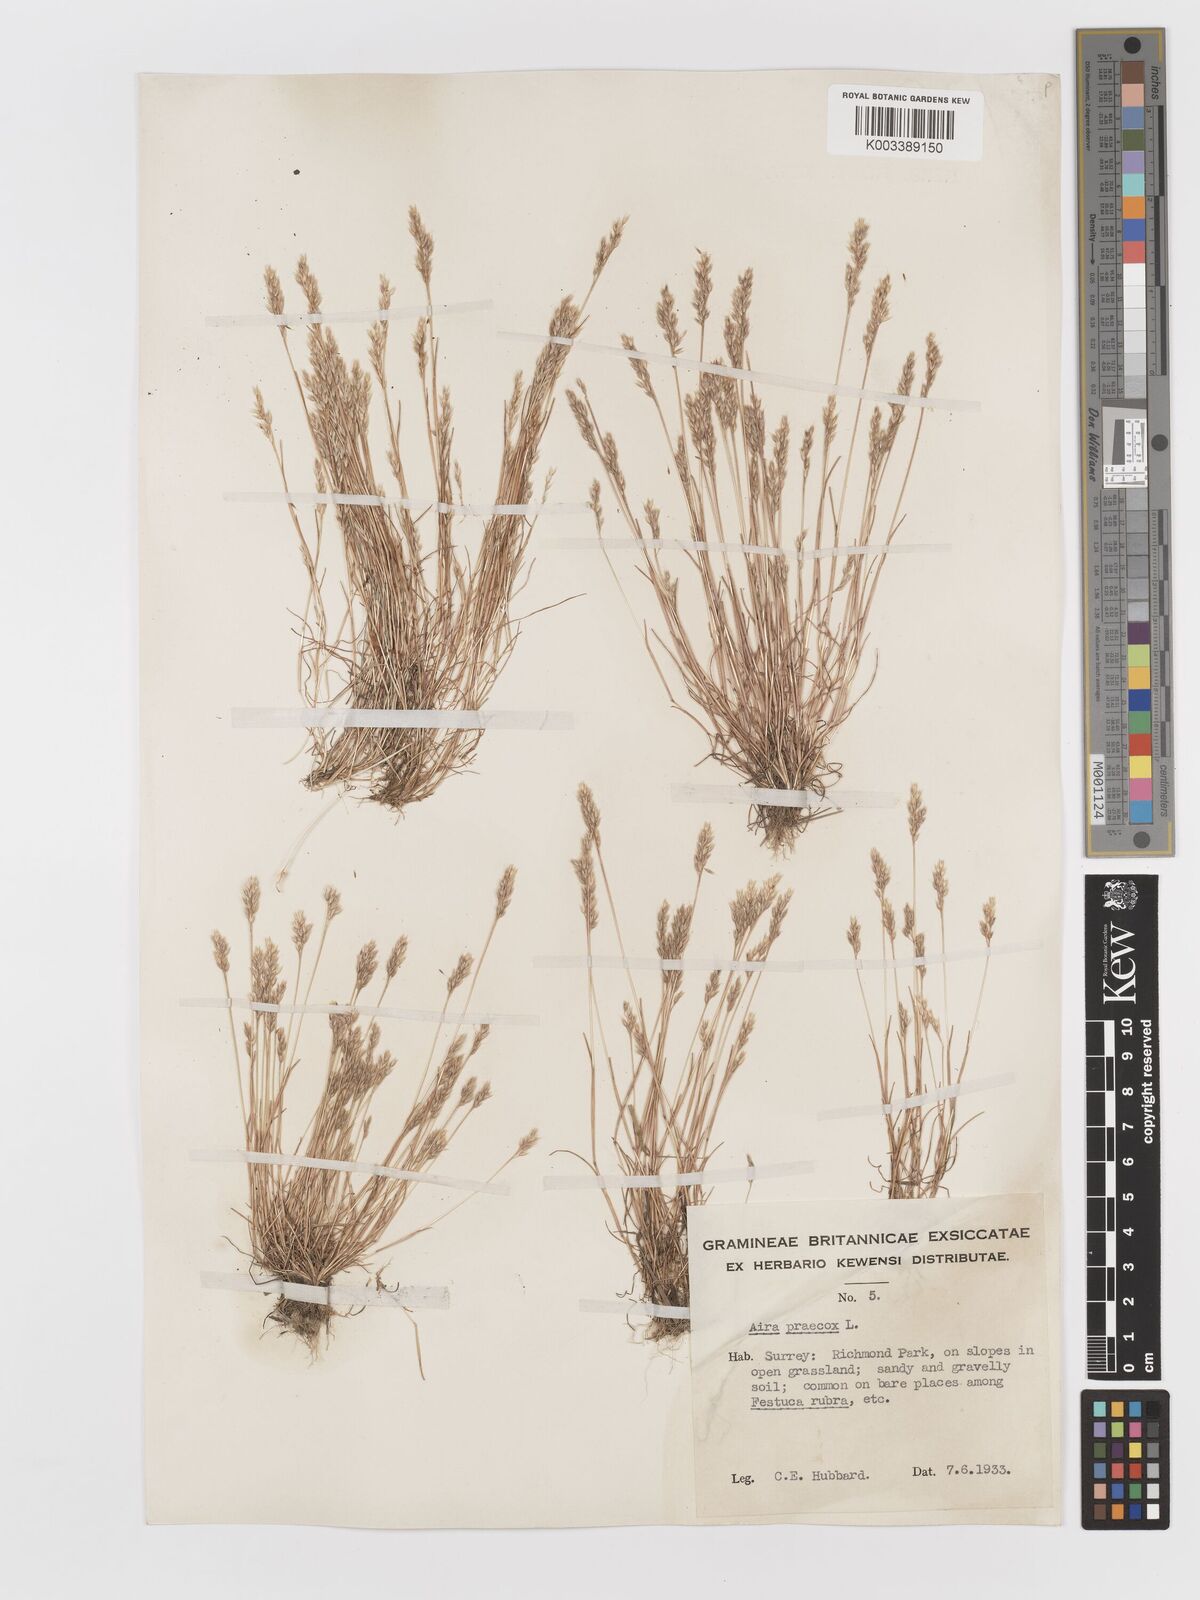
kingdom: Plantae
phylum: Tracheophyta
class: Liliopsida
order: Poales
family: Poaceae
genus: Aira
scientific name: Aira praecox
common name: Early hair-grass
